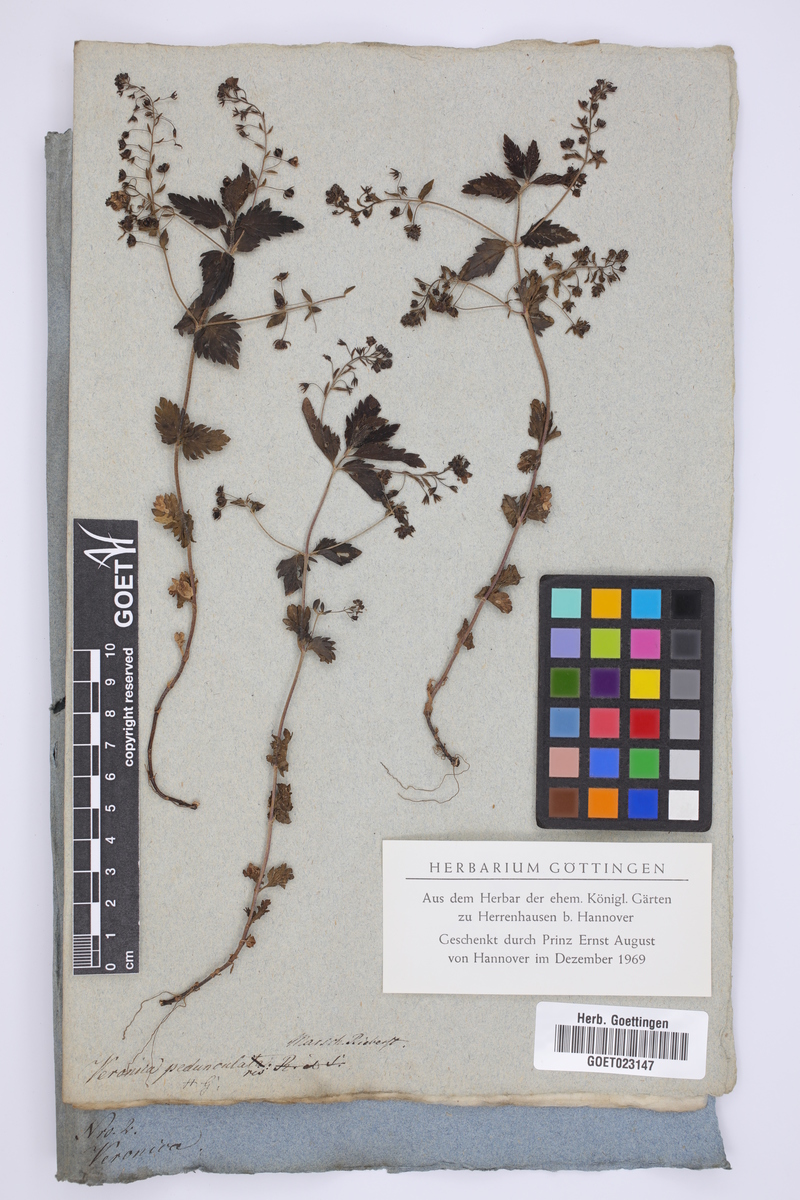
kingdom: Plantae
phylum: Tracheophyta
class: Magnoliopsida
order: Lamiales
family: Plantaginaceae
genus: Veronica
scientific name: Veronica peduncularis
